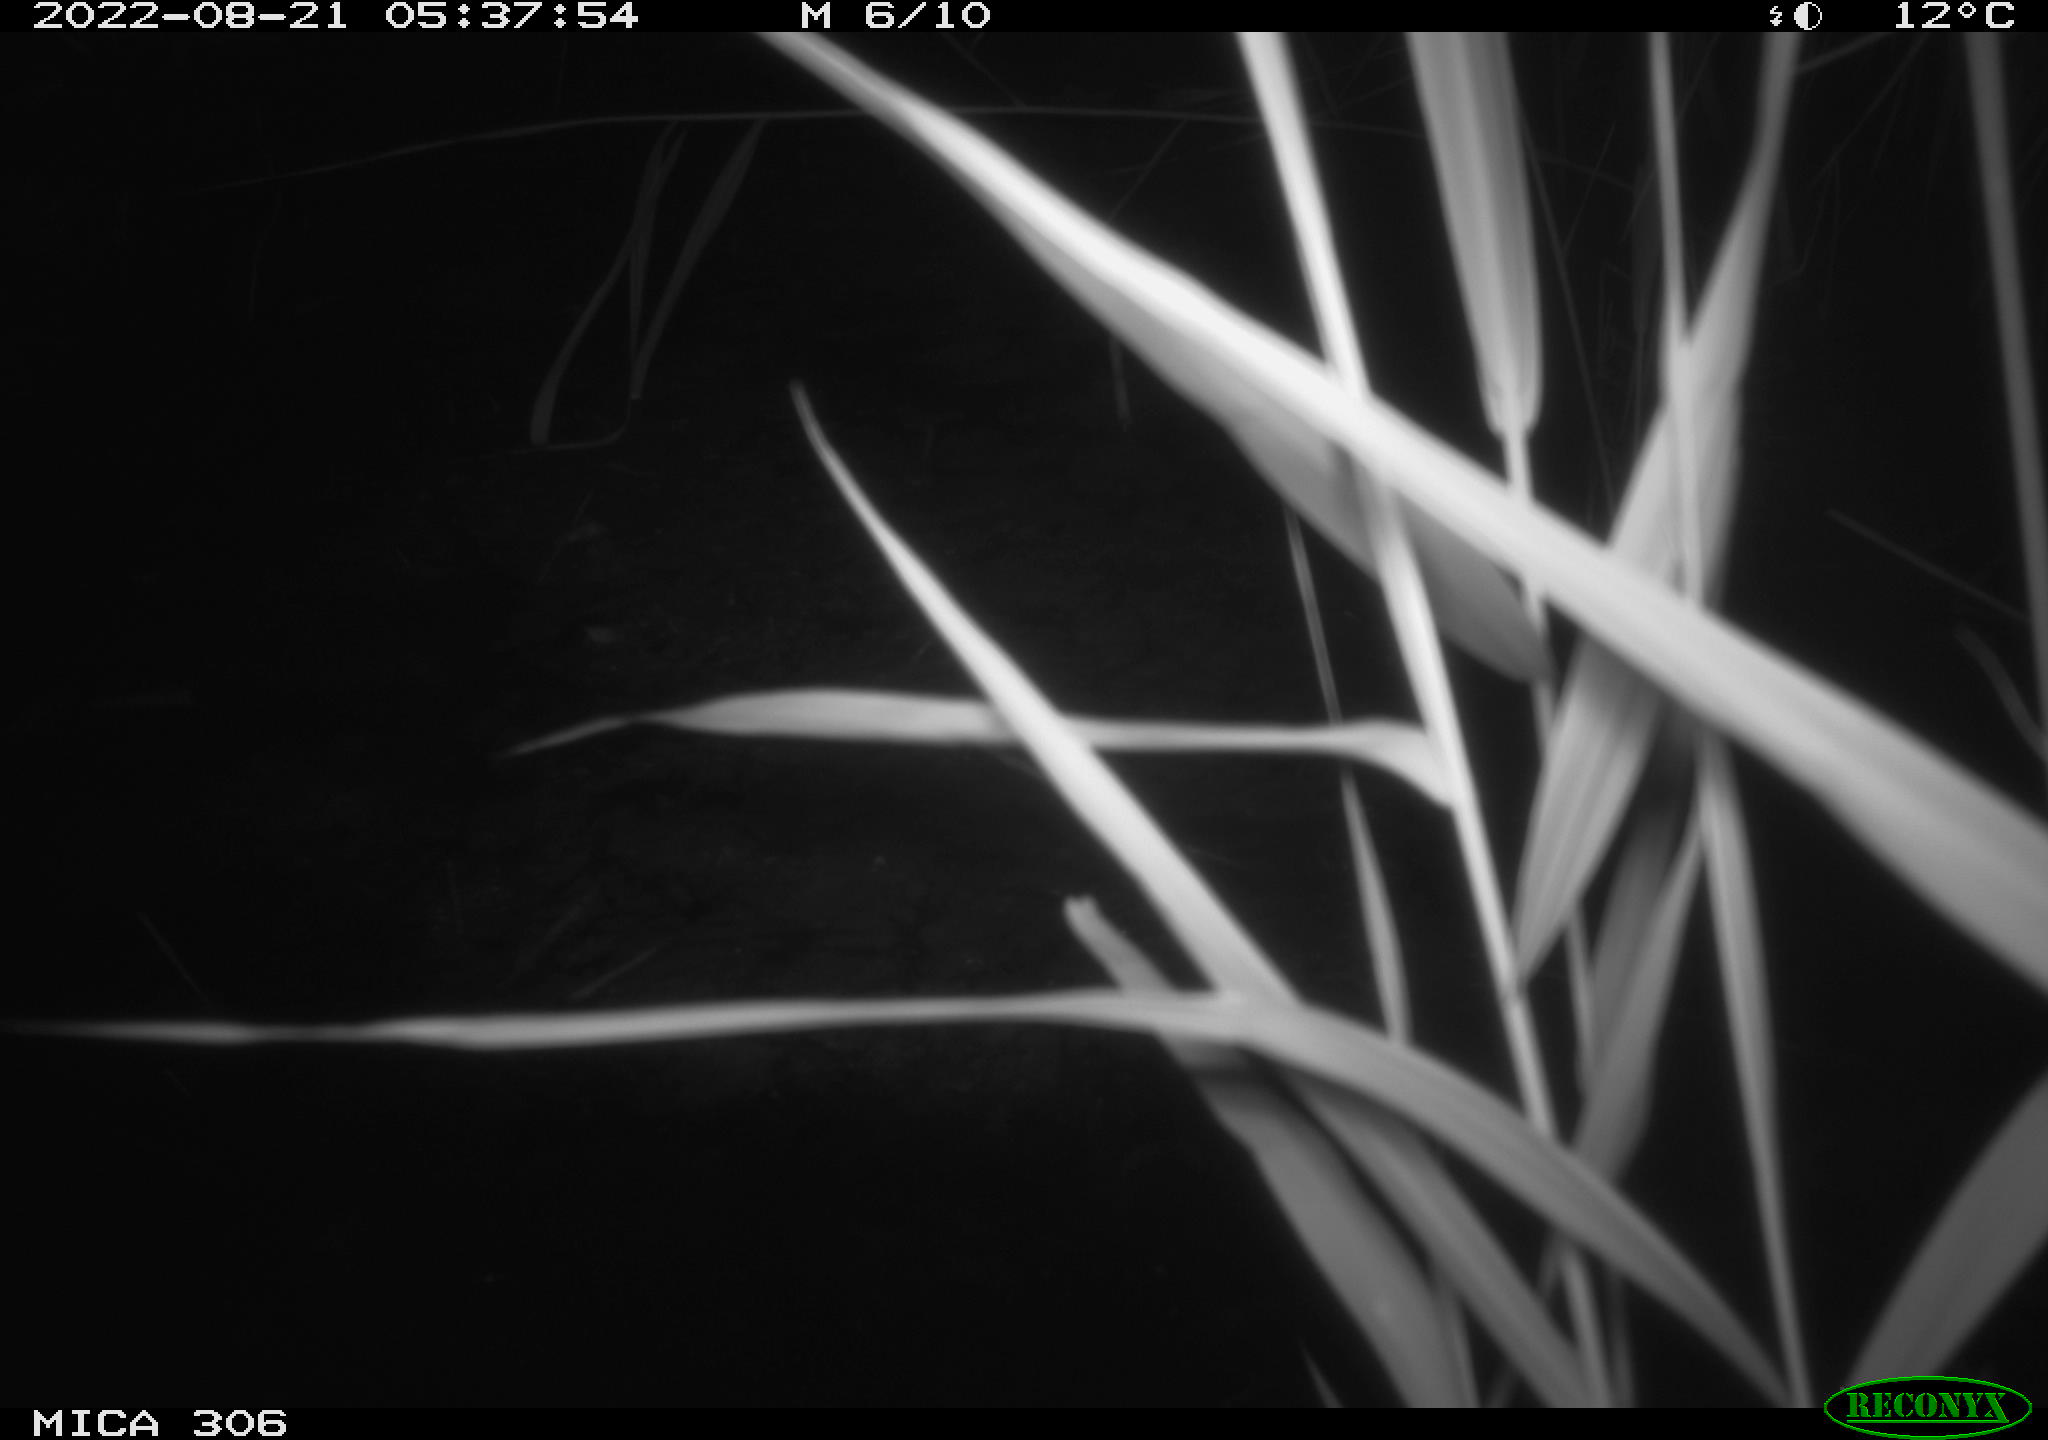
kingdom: Animalia
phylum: Chordata
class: Mammalia
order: Rodentia
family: Muridae
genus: Rattus
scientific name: Rattus norvegicus
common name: Brown rat
